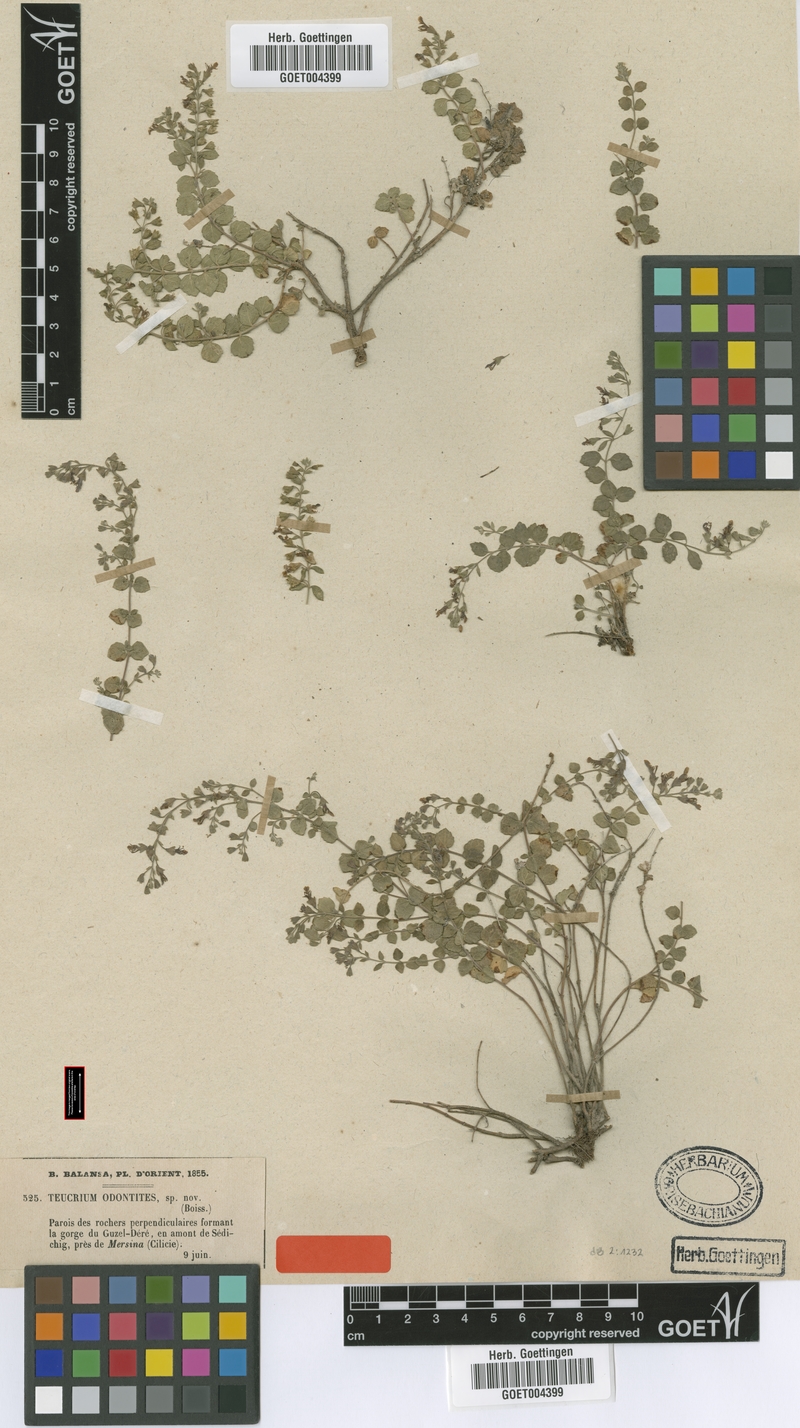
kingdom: Plantae
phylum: Tracheophyta
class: Magnoliopsida
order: Lamiales
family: Lamiaceae
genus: Teucrium
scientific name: Teucrium odontites
